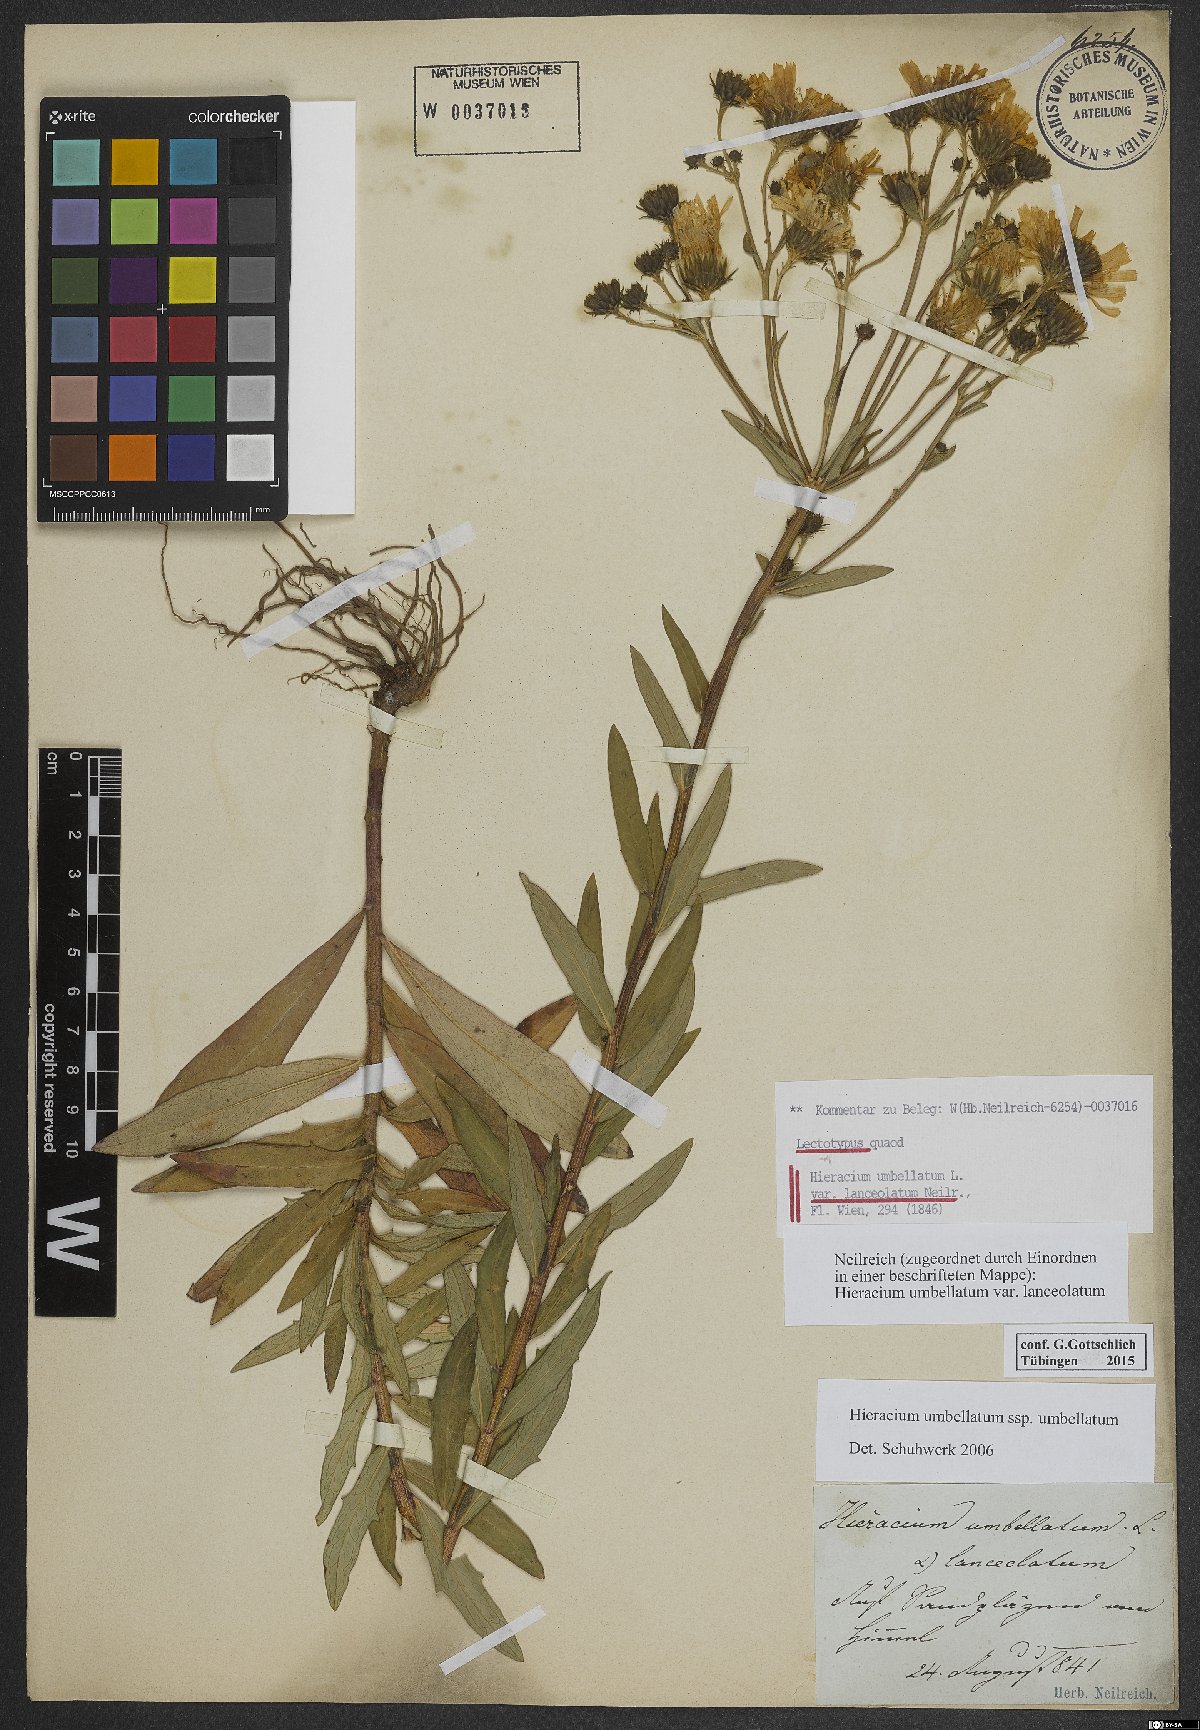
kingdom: Plantae
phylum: Tracheophyta
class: Magnoliopsida
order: Asterales
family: Asteraceae
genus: Hieracium
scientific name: Hieracium umbellatum
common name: Northern hawkweed
